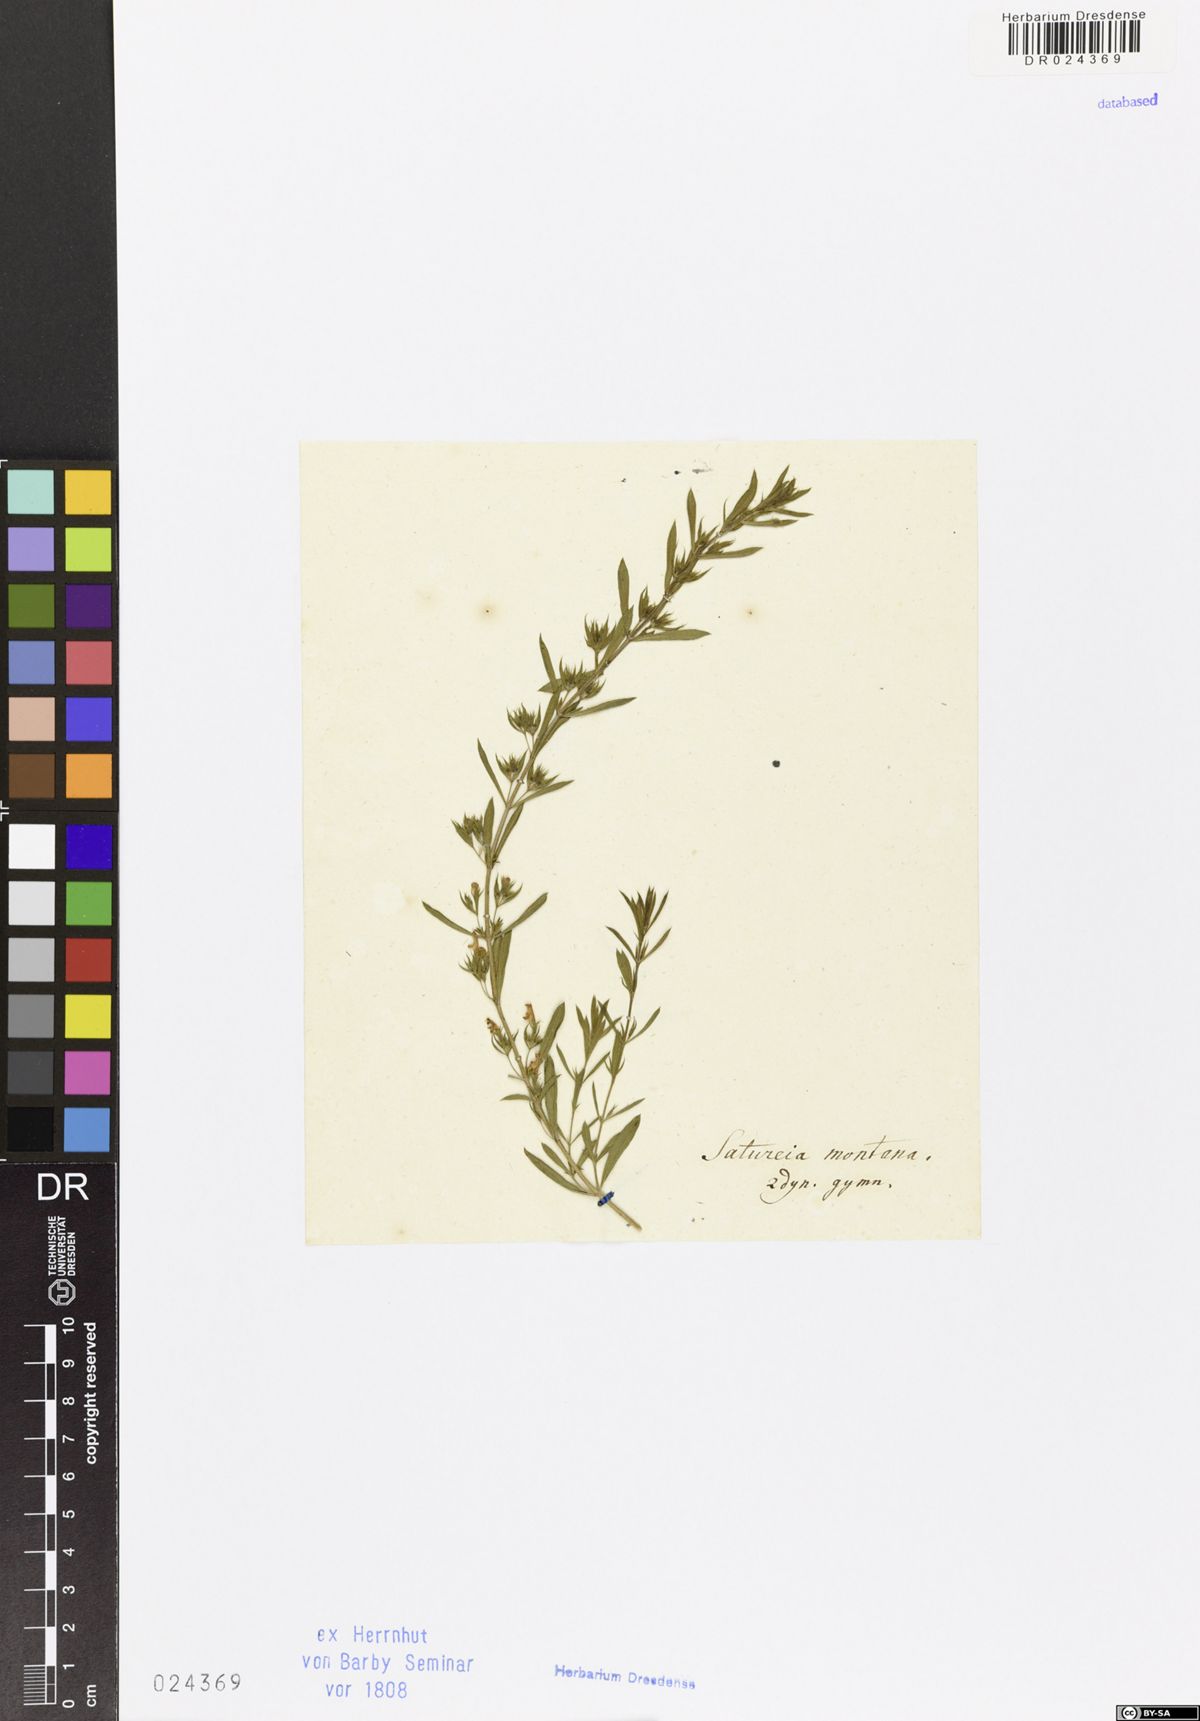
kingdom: Plantae
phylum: Tracheophyta
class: Magnoliopsida
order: Lamiales
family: Lamiaceae
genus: Satureja
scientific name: Satureja montana
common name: Winter savory
